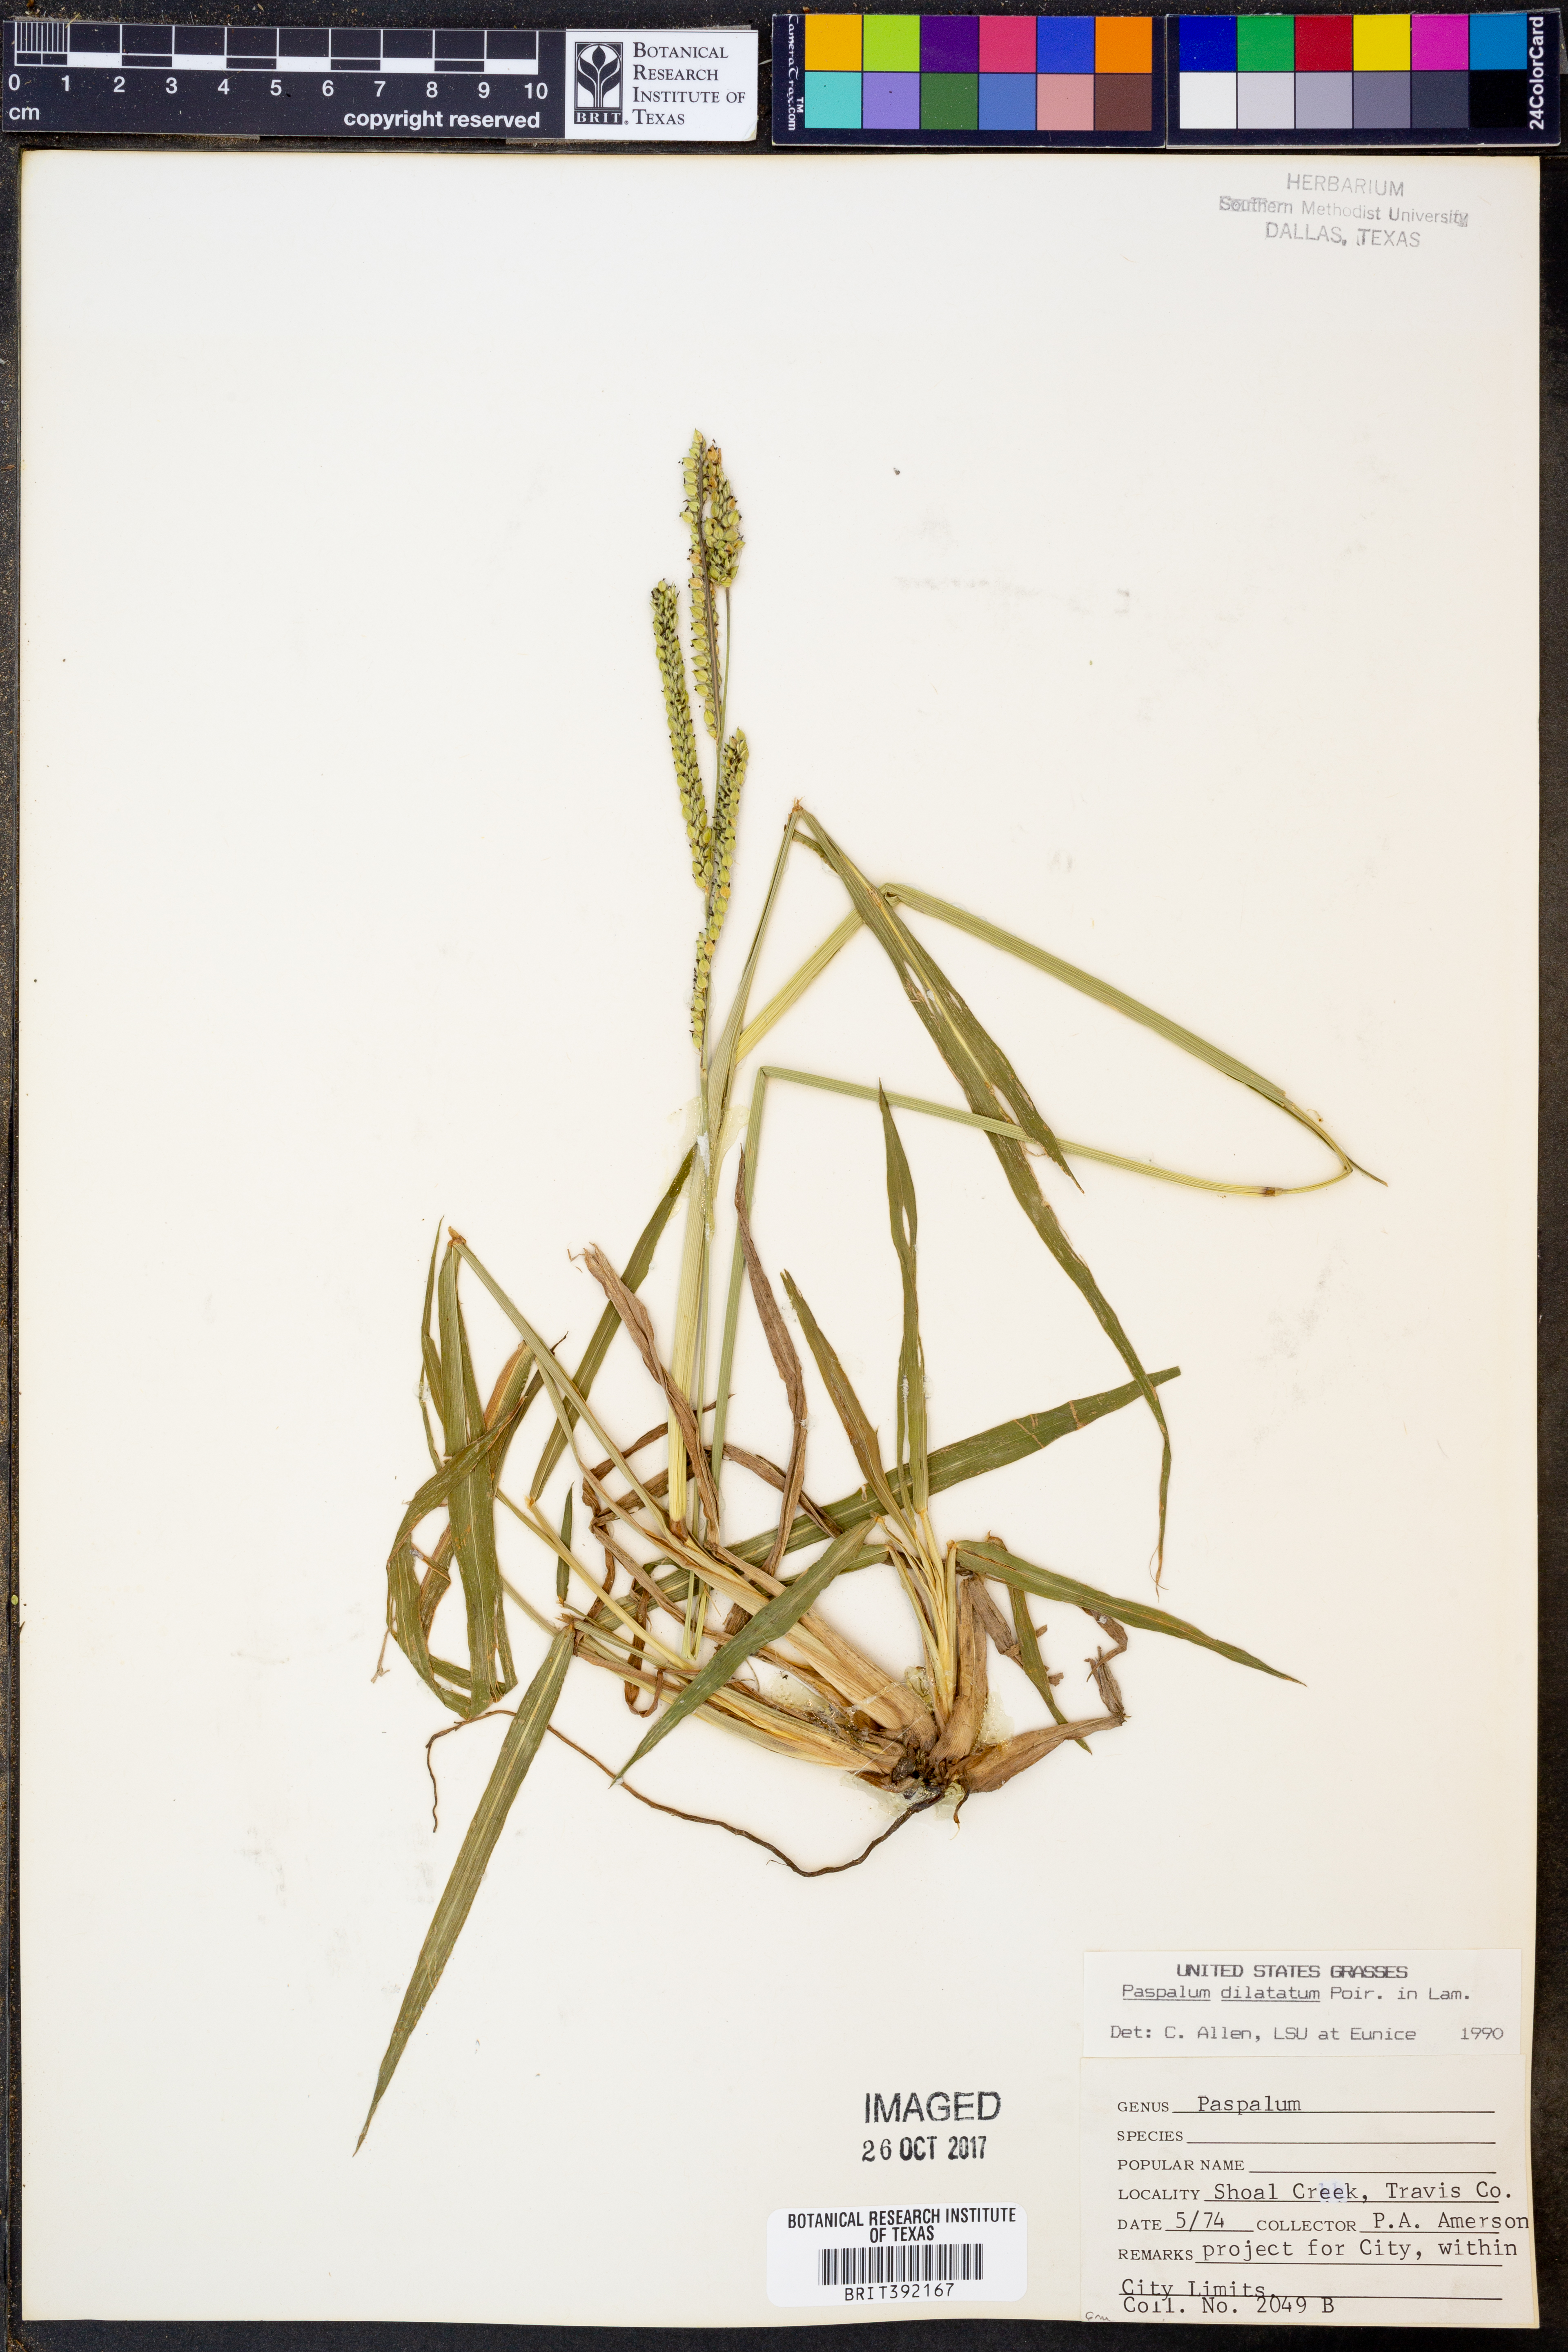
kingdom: Plantae
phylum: Tracheophyta
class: Liliopsida
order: Poales
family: Poaceae
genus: Paspalum
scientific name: Paspalum dilatatum
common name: Dallisgrass
